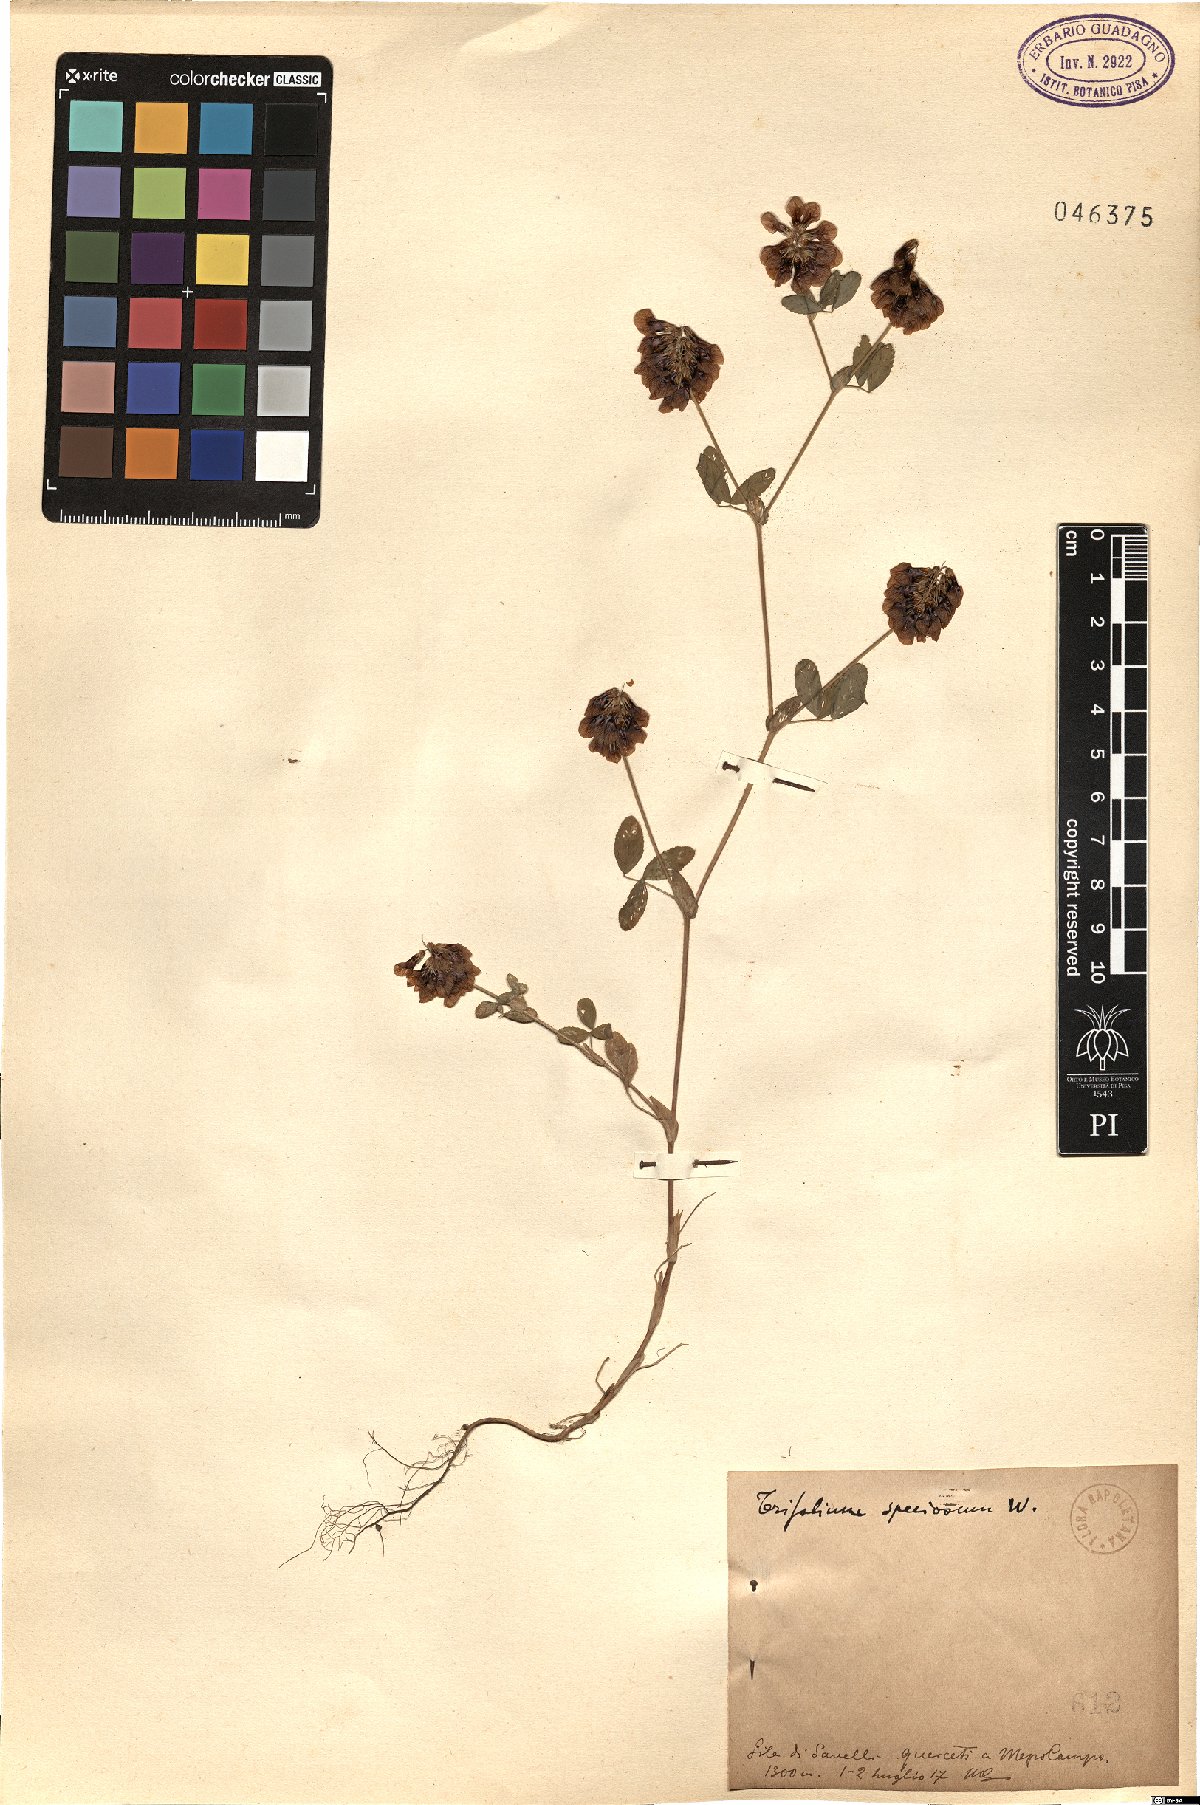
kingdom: Plantae
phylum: Tracheophyta
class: Magnoliopsida
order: Fabales
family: Fabaceae
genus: Trifolium
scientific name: Trifolium grandiflorum
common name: Large-flower hop clover
